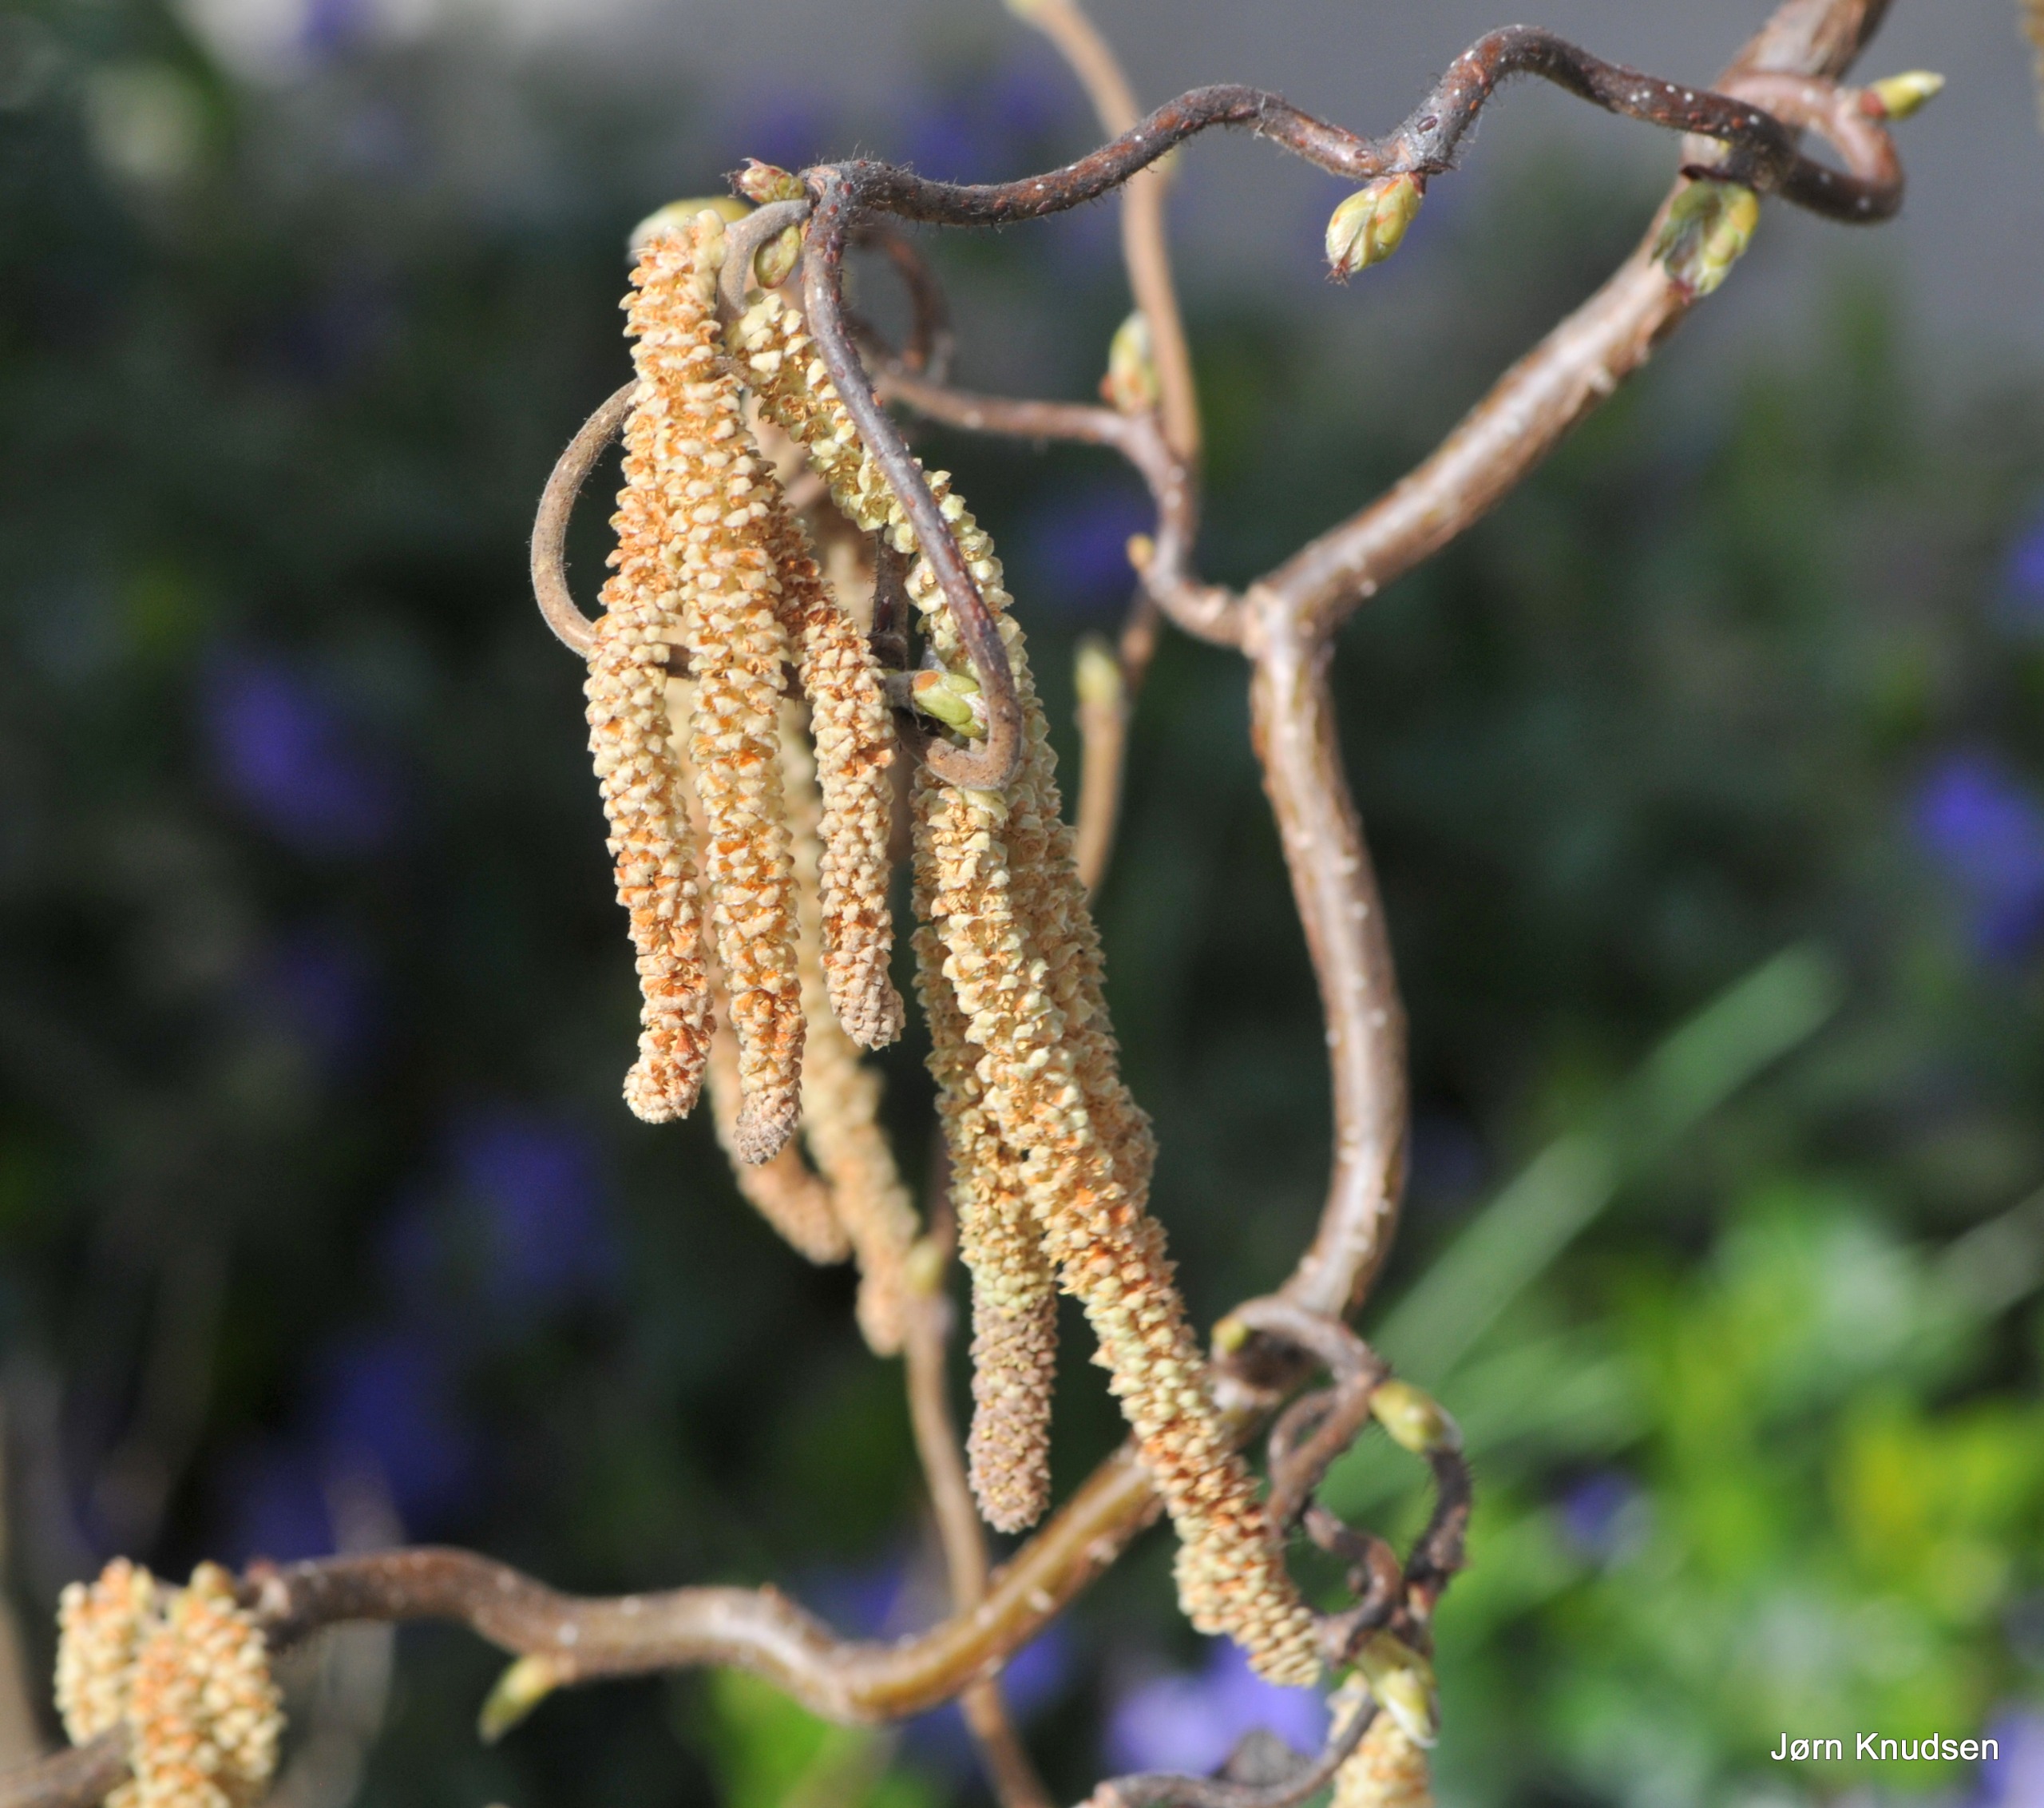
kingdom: Plantae
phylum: Tracheophyta
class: Magnoliopsida
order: Fagales
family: Betulaceae
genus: Corylus
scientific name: Corylus avellana
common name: Hassel
